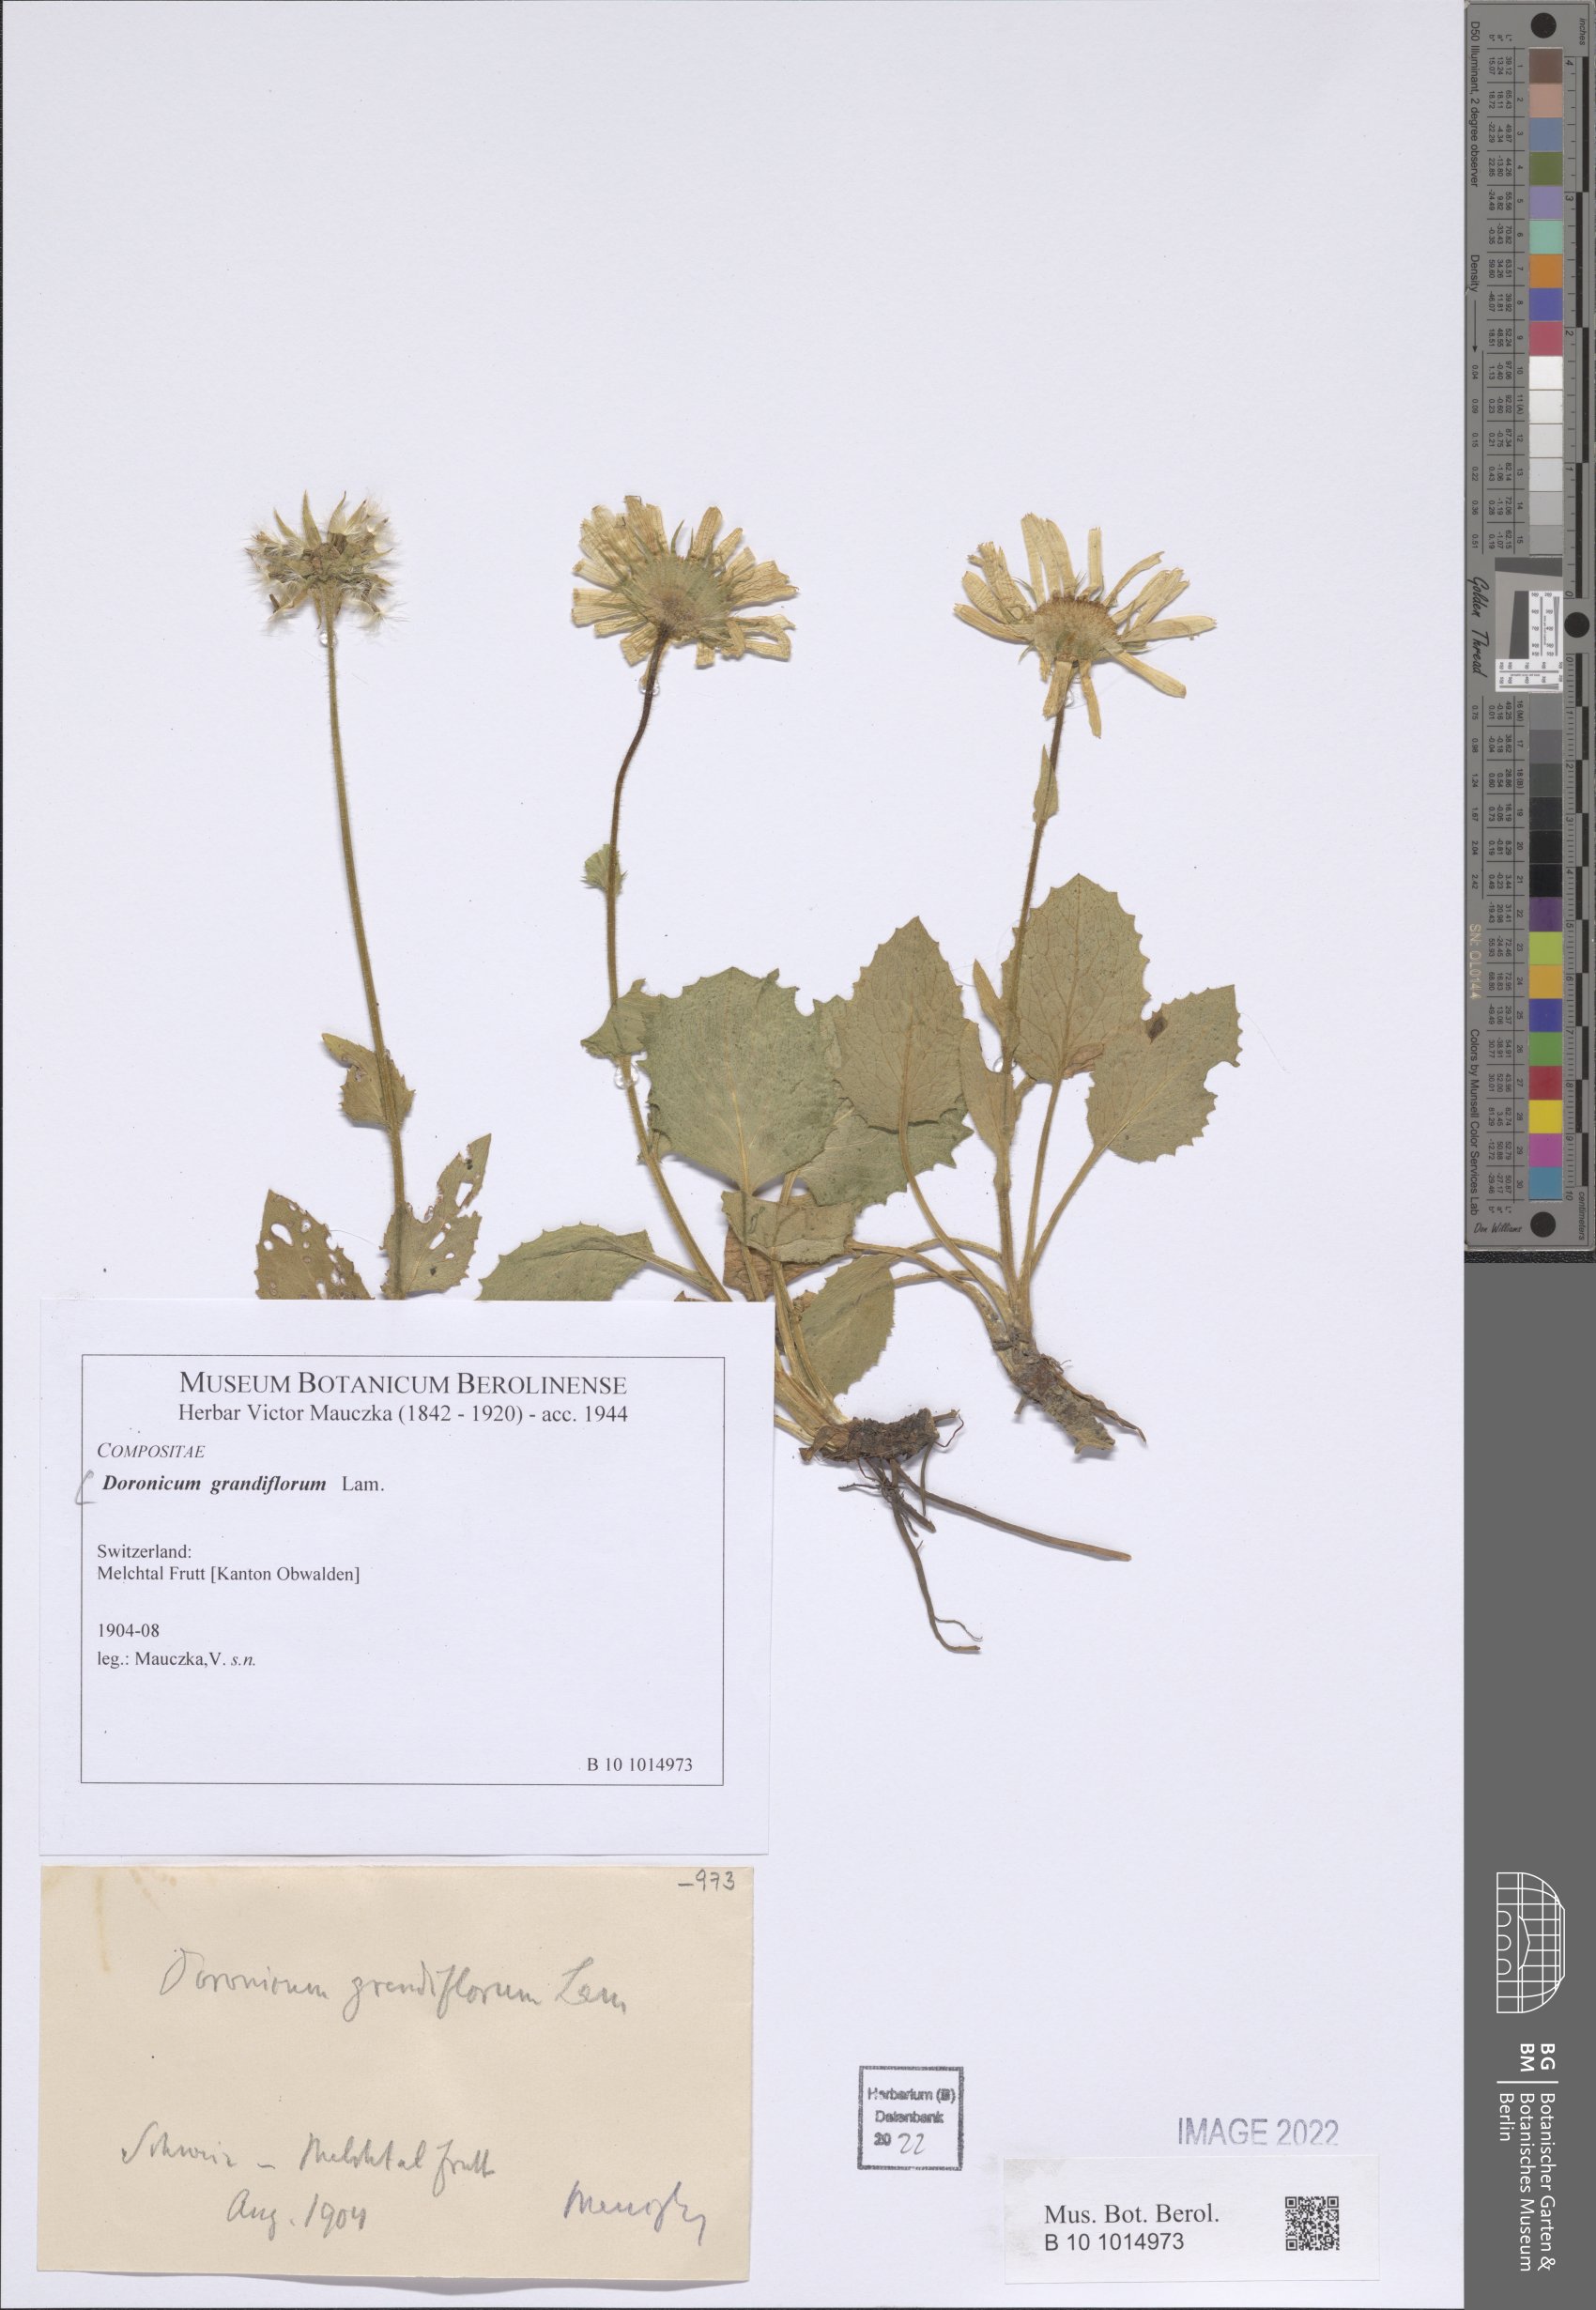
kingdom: Plantae
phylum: Tracheophyta
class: Magnoliopsida
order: Asterales
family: Asteraceae
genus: Doronicum
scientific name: Doronicum grandiflorum
